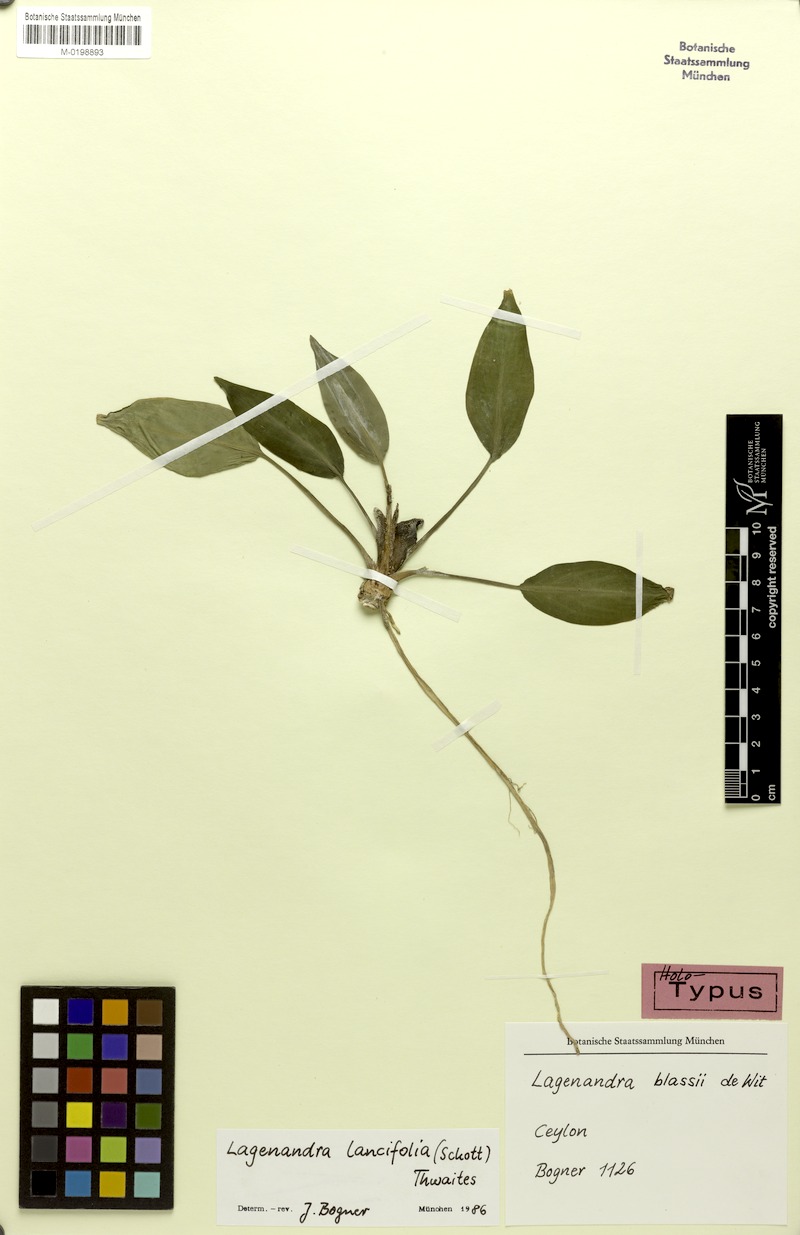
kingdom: Plantae
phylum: Tracheophyta
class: Liliopsida
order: Alismatales
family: Araceae
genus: Lagenandra
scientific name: Lagenandra lancifolia
